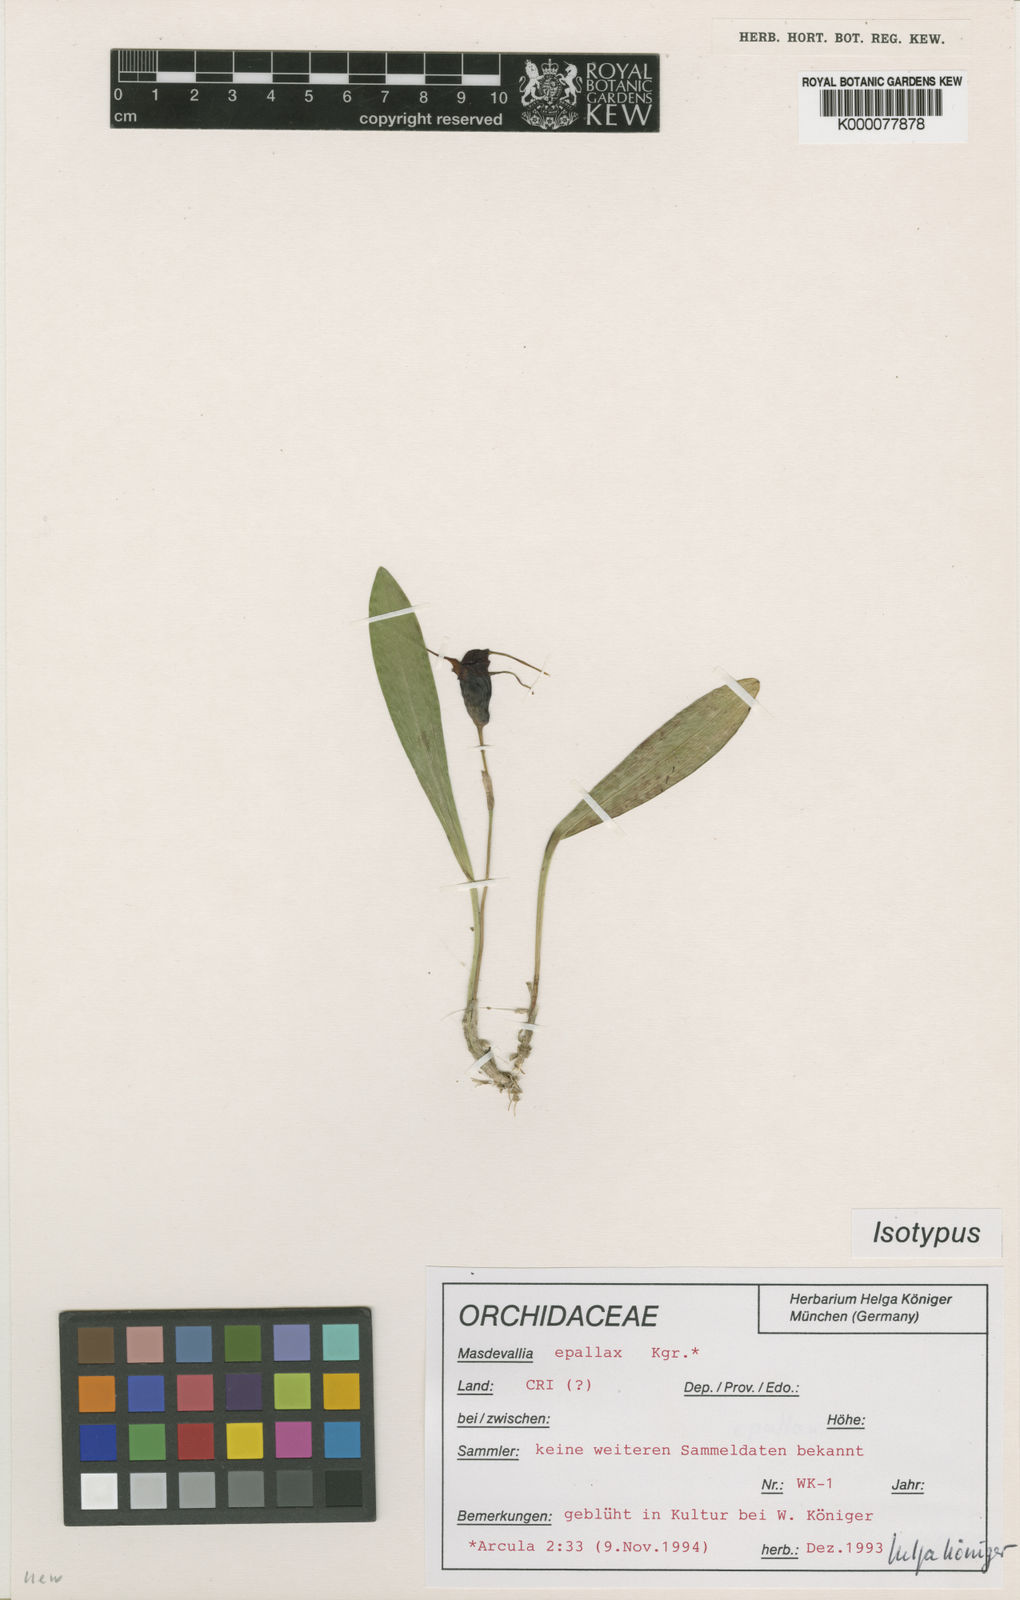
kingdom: Plantae
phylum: Tracheophyta
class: Liliopsida
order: Asparagales
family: Orchidaceae
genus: Masdevallia
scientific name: Masdevallia
